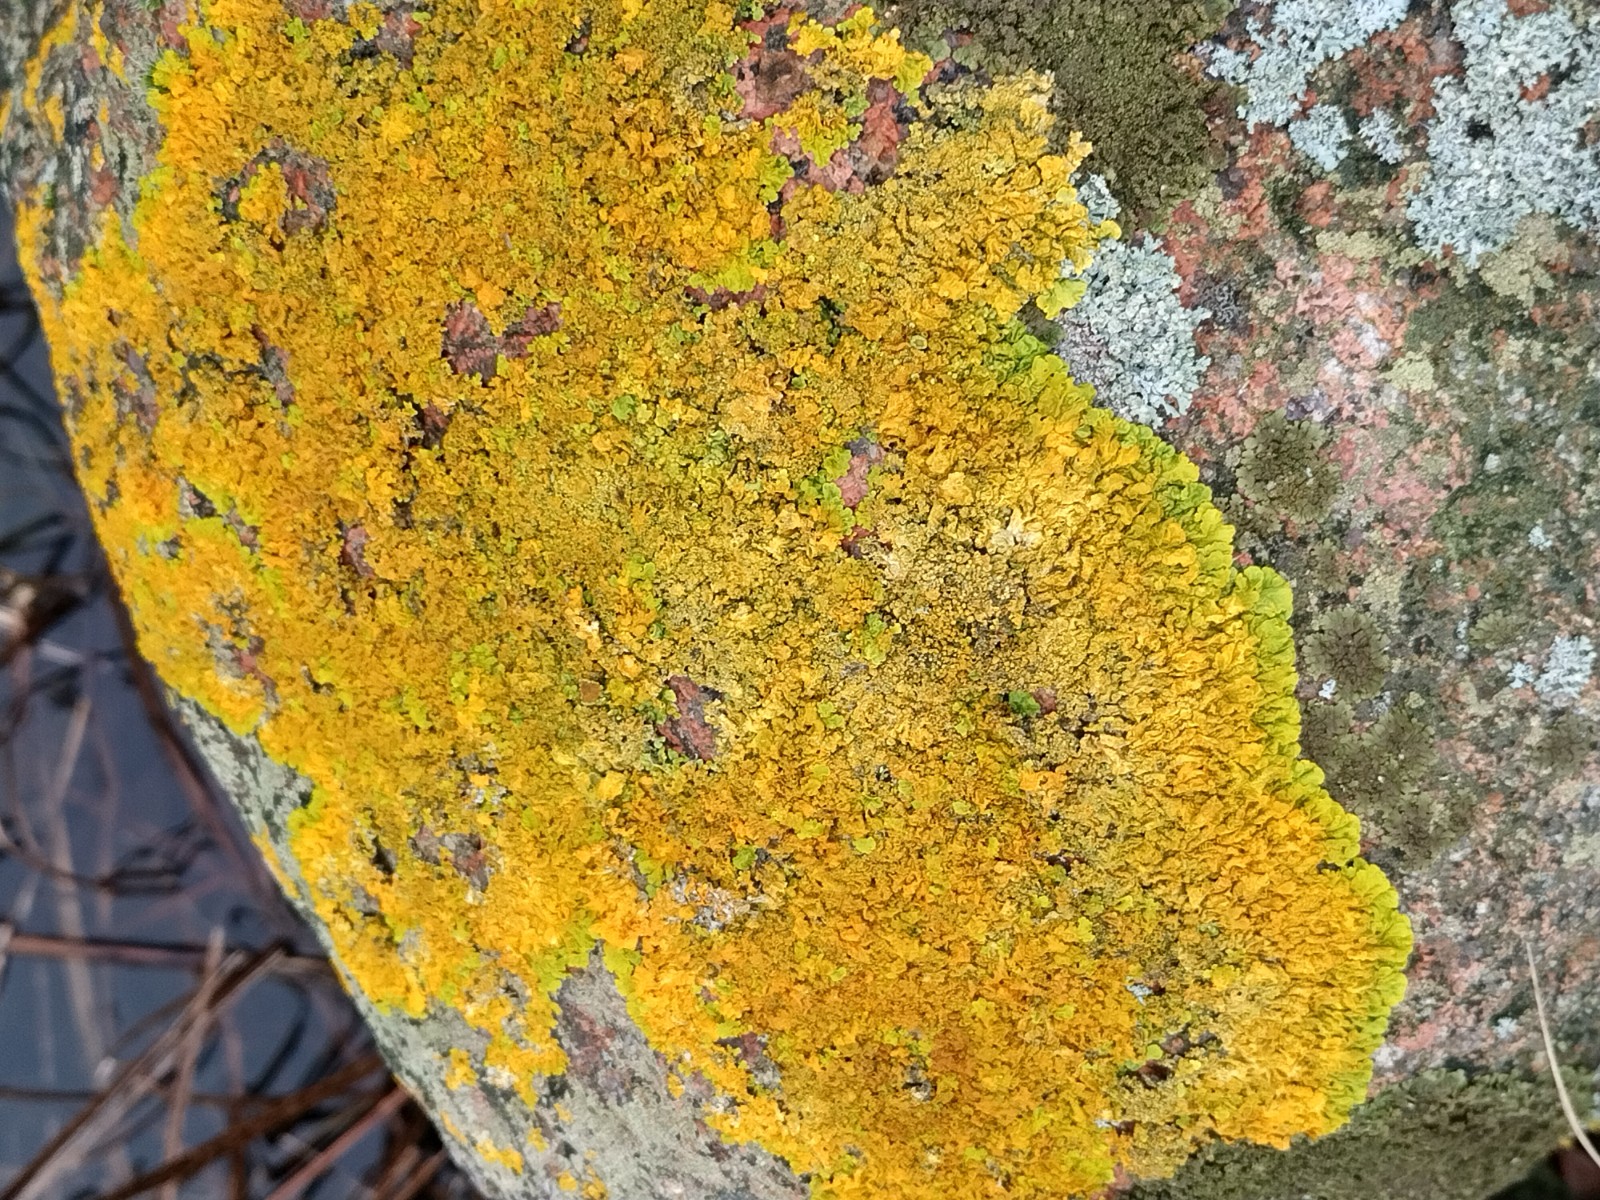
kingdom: Fungi
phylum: Ascomycota
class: Lecanoromycetes
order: Teloschistales
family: Teloschistaceae
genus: Xanthoria
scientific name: Xanthoria calcicola
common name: vortet væggelav
